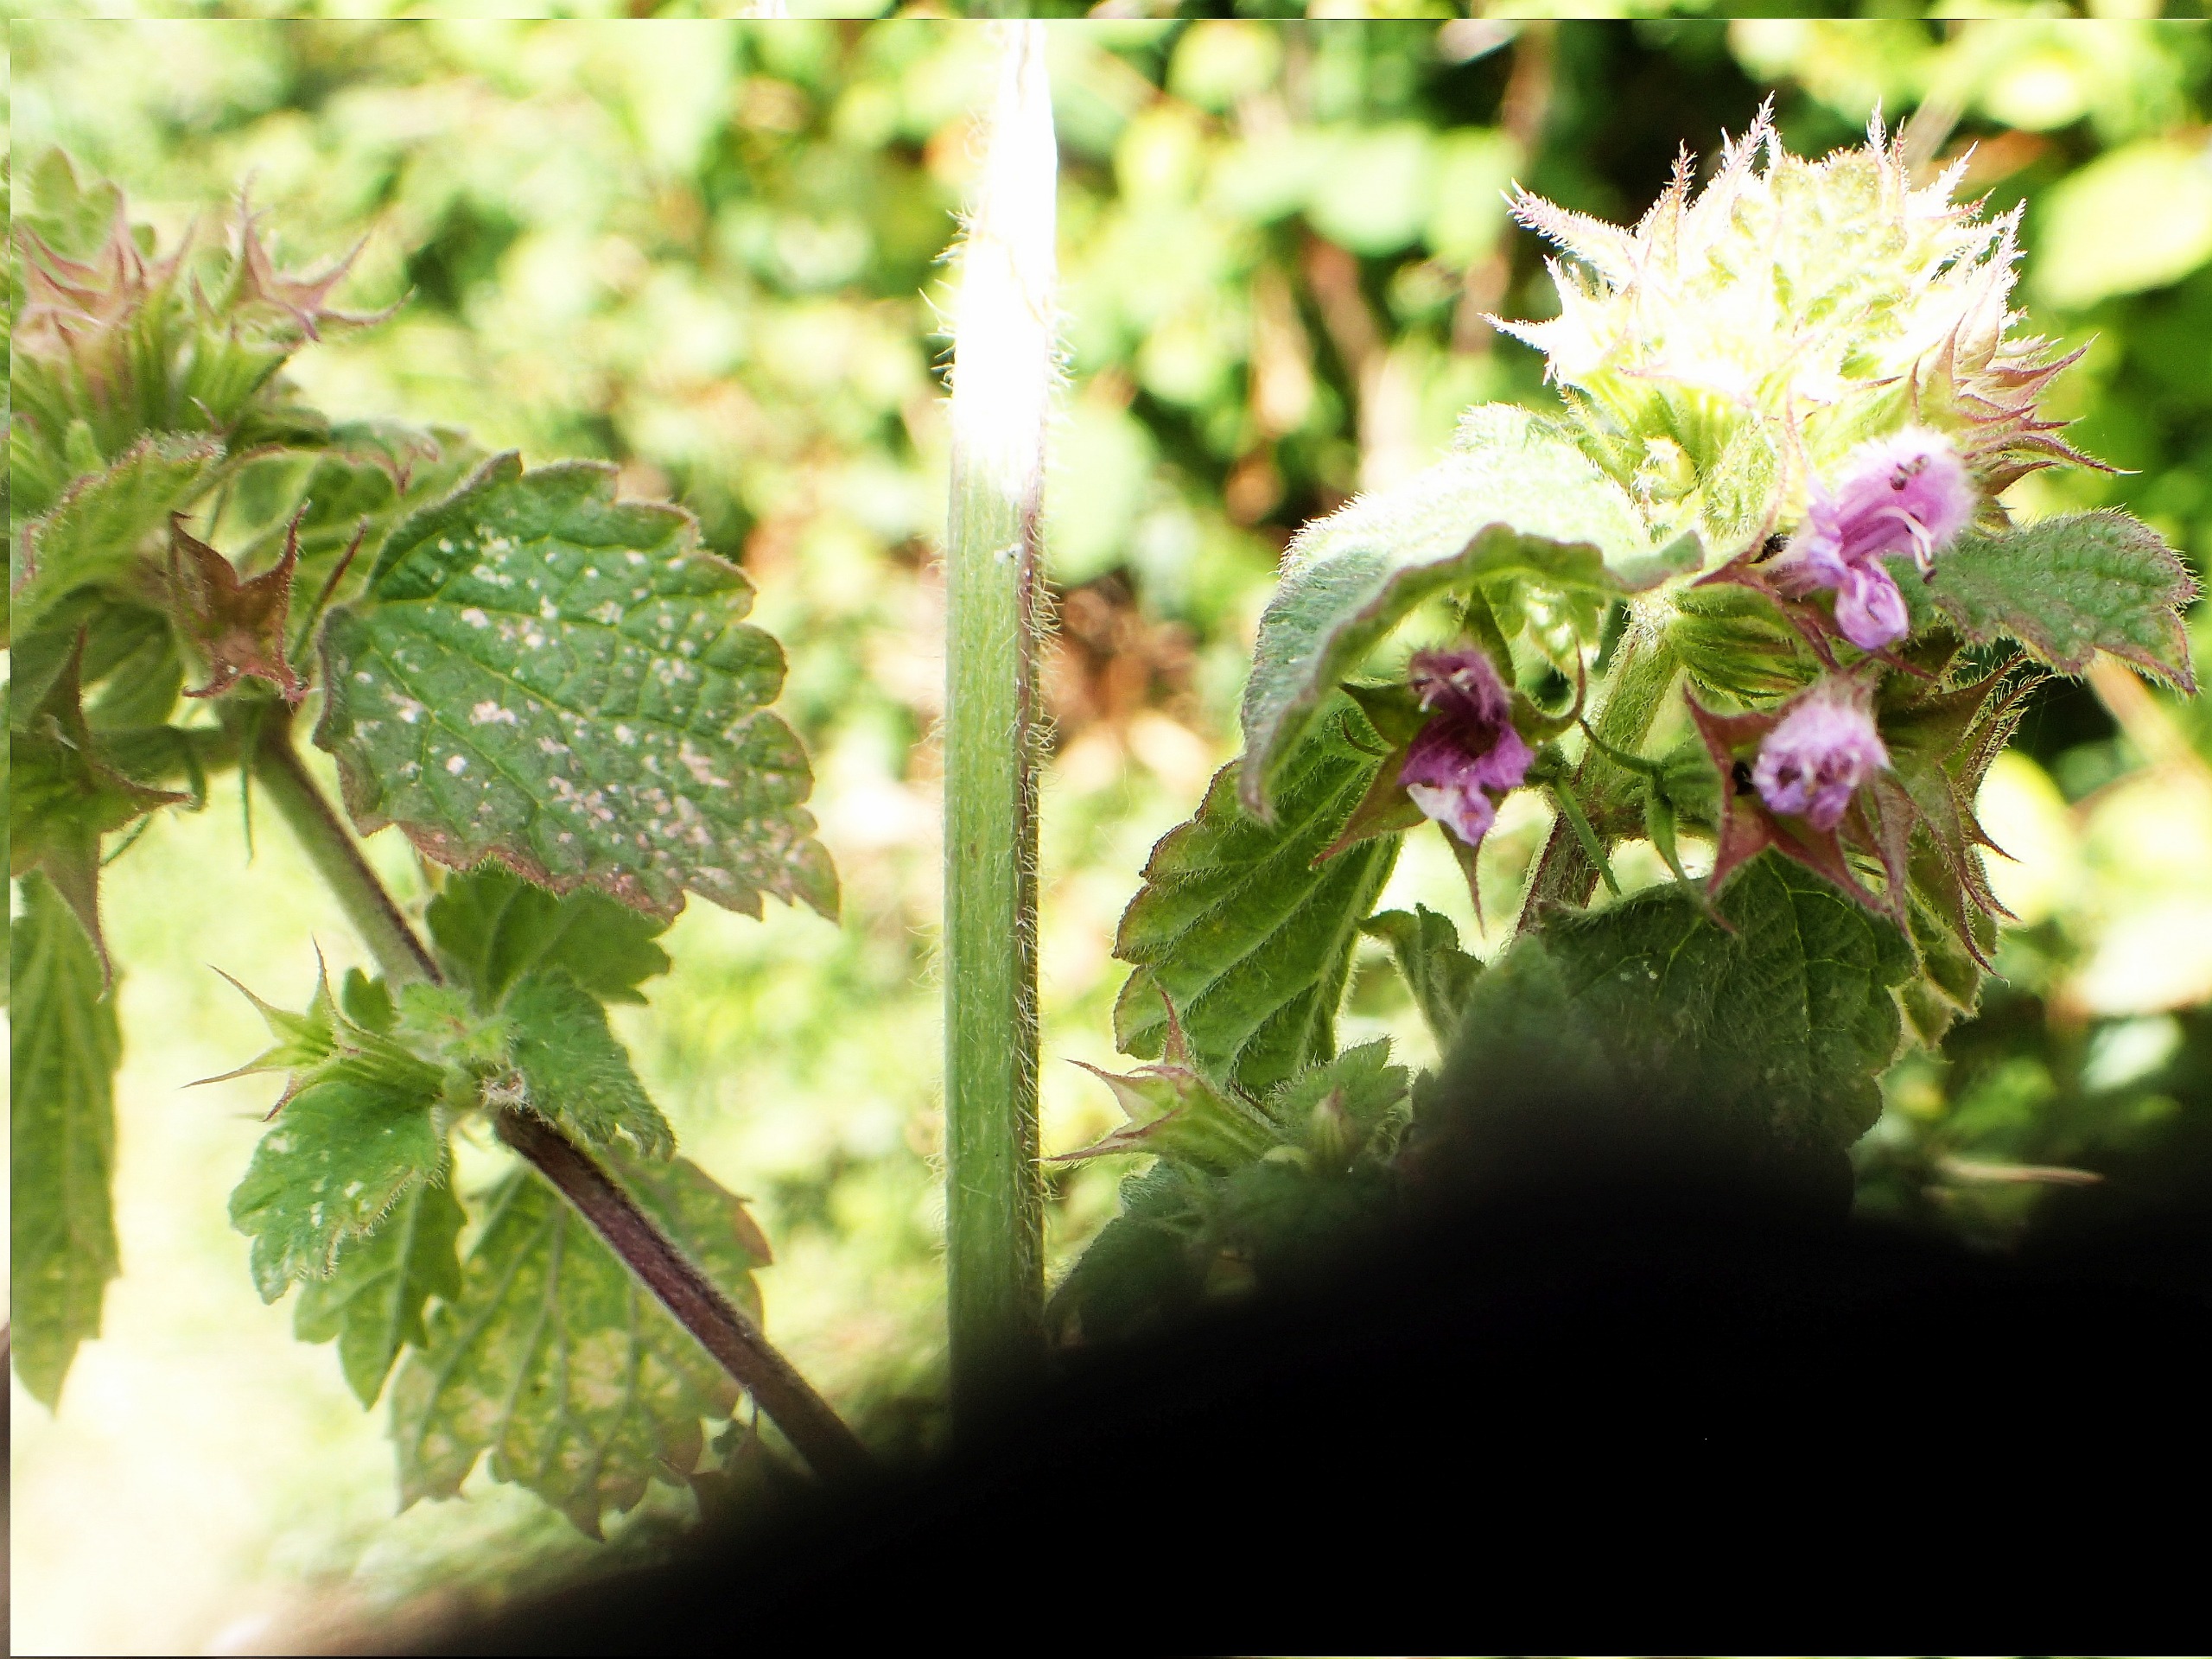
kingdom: Plantae
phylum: Tracheophyta
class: Magnoliopsida
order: Lamiales
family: Lamiaceae
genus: Ballota
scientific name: Ballota nigra
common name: Tandbæger
